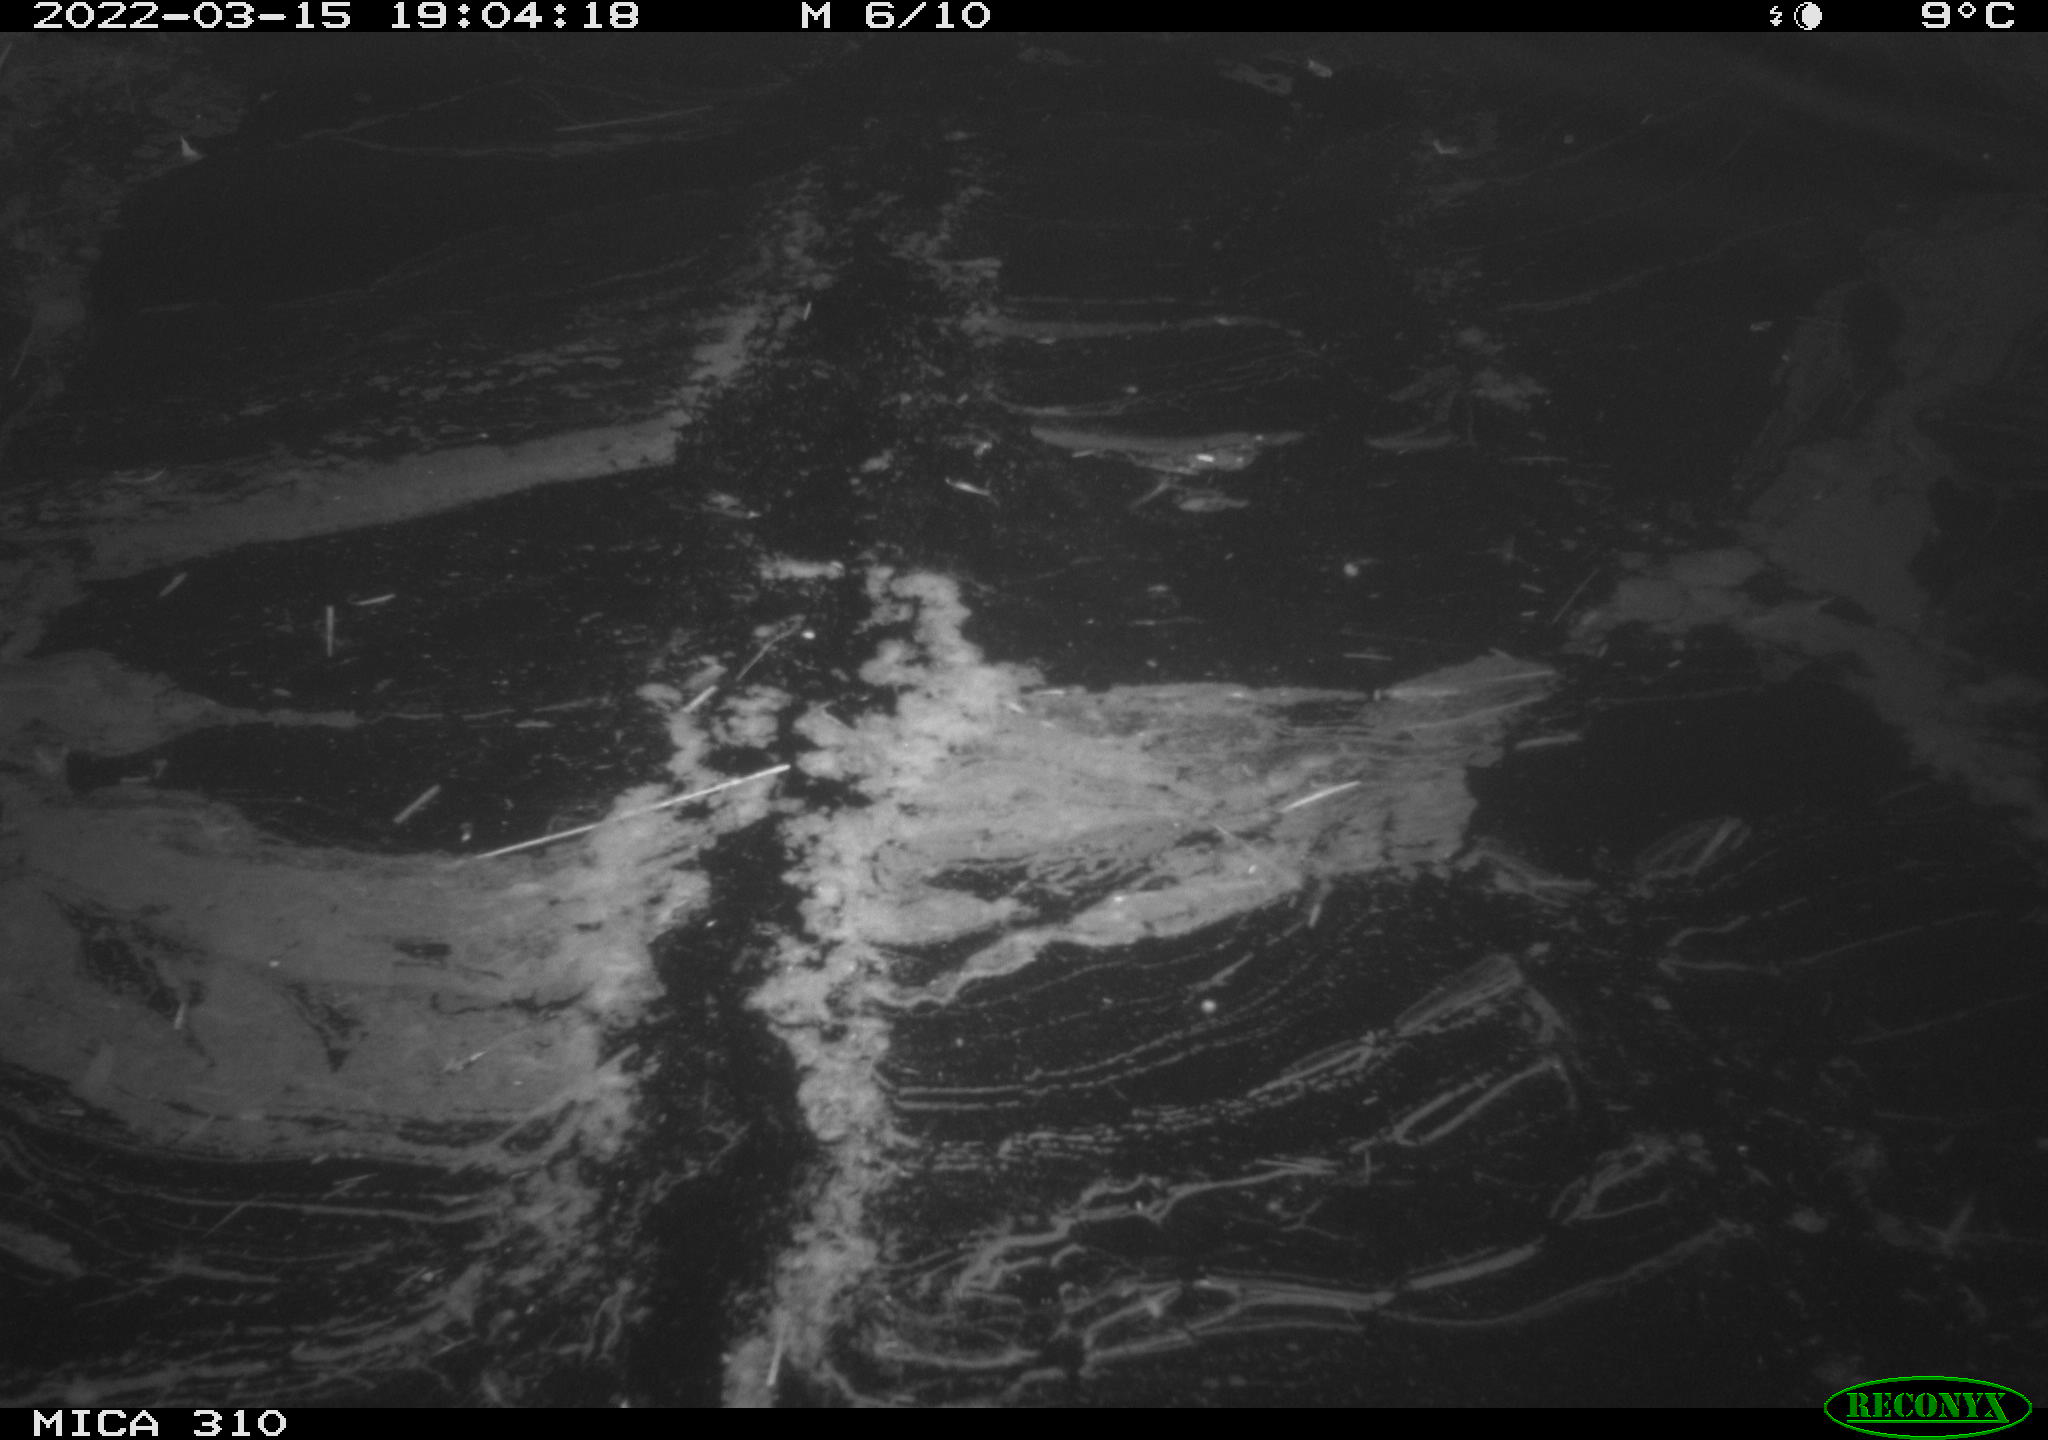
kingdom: Animalia
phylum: Chordata
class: Aves
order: Anseriformes
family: Anatidae
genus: Anas
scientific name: Anas platyrhynchos
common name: Mallard
